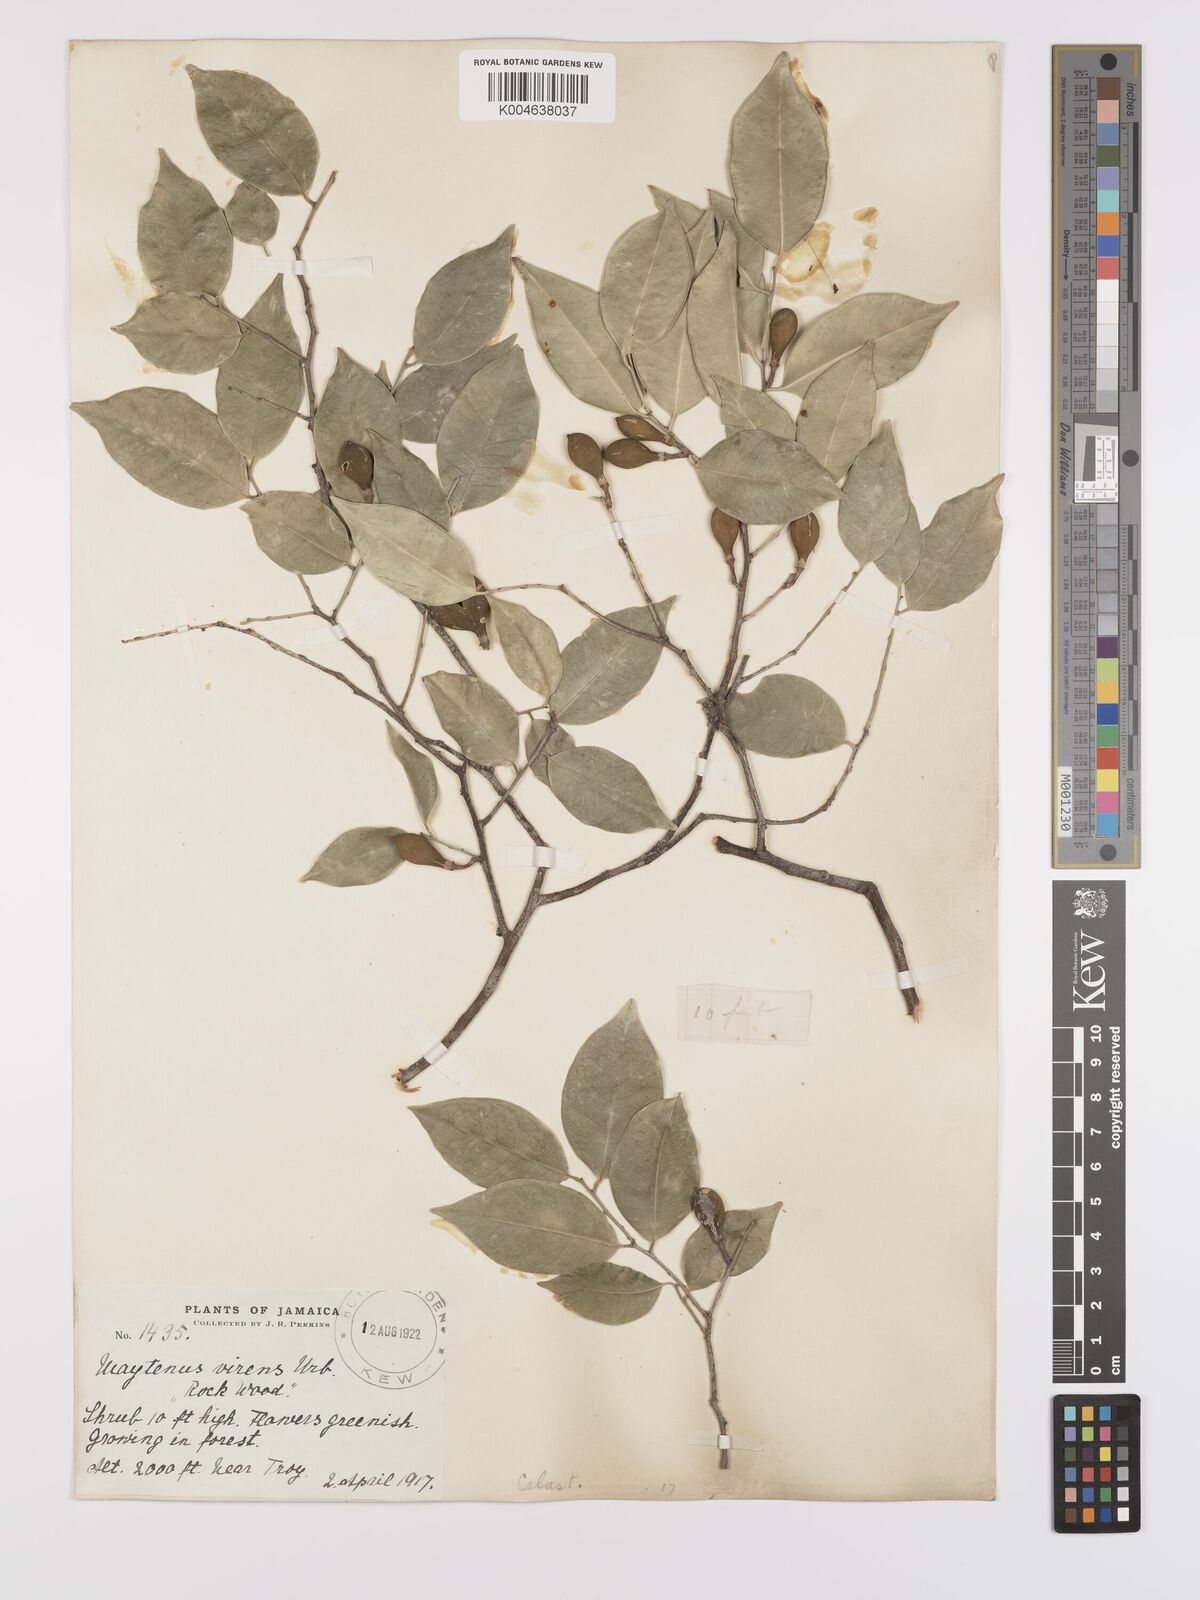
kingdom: Plantae
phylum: Tracheophyta
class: Magnoliopsida
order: Celastrales
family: Celastraceae
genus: Monteverdia
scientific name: Monteverdia virens
